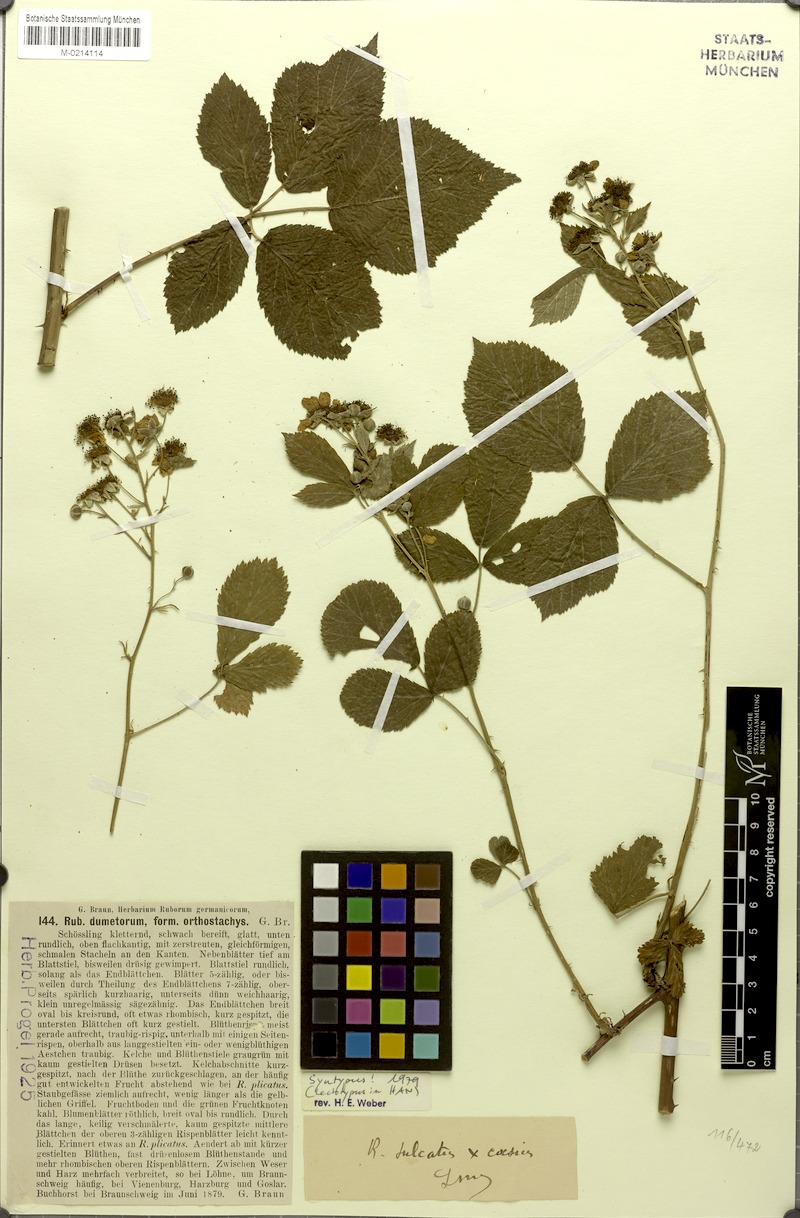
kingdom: Plantae
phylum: Tracheophyta
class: Magnoliopsida
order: Rosales
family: Rosaceae
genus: Rubus
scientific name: Rubus orthostachys
